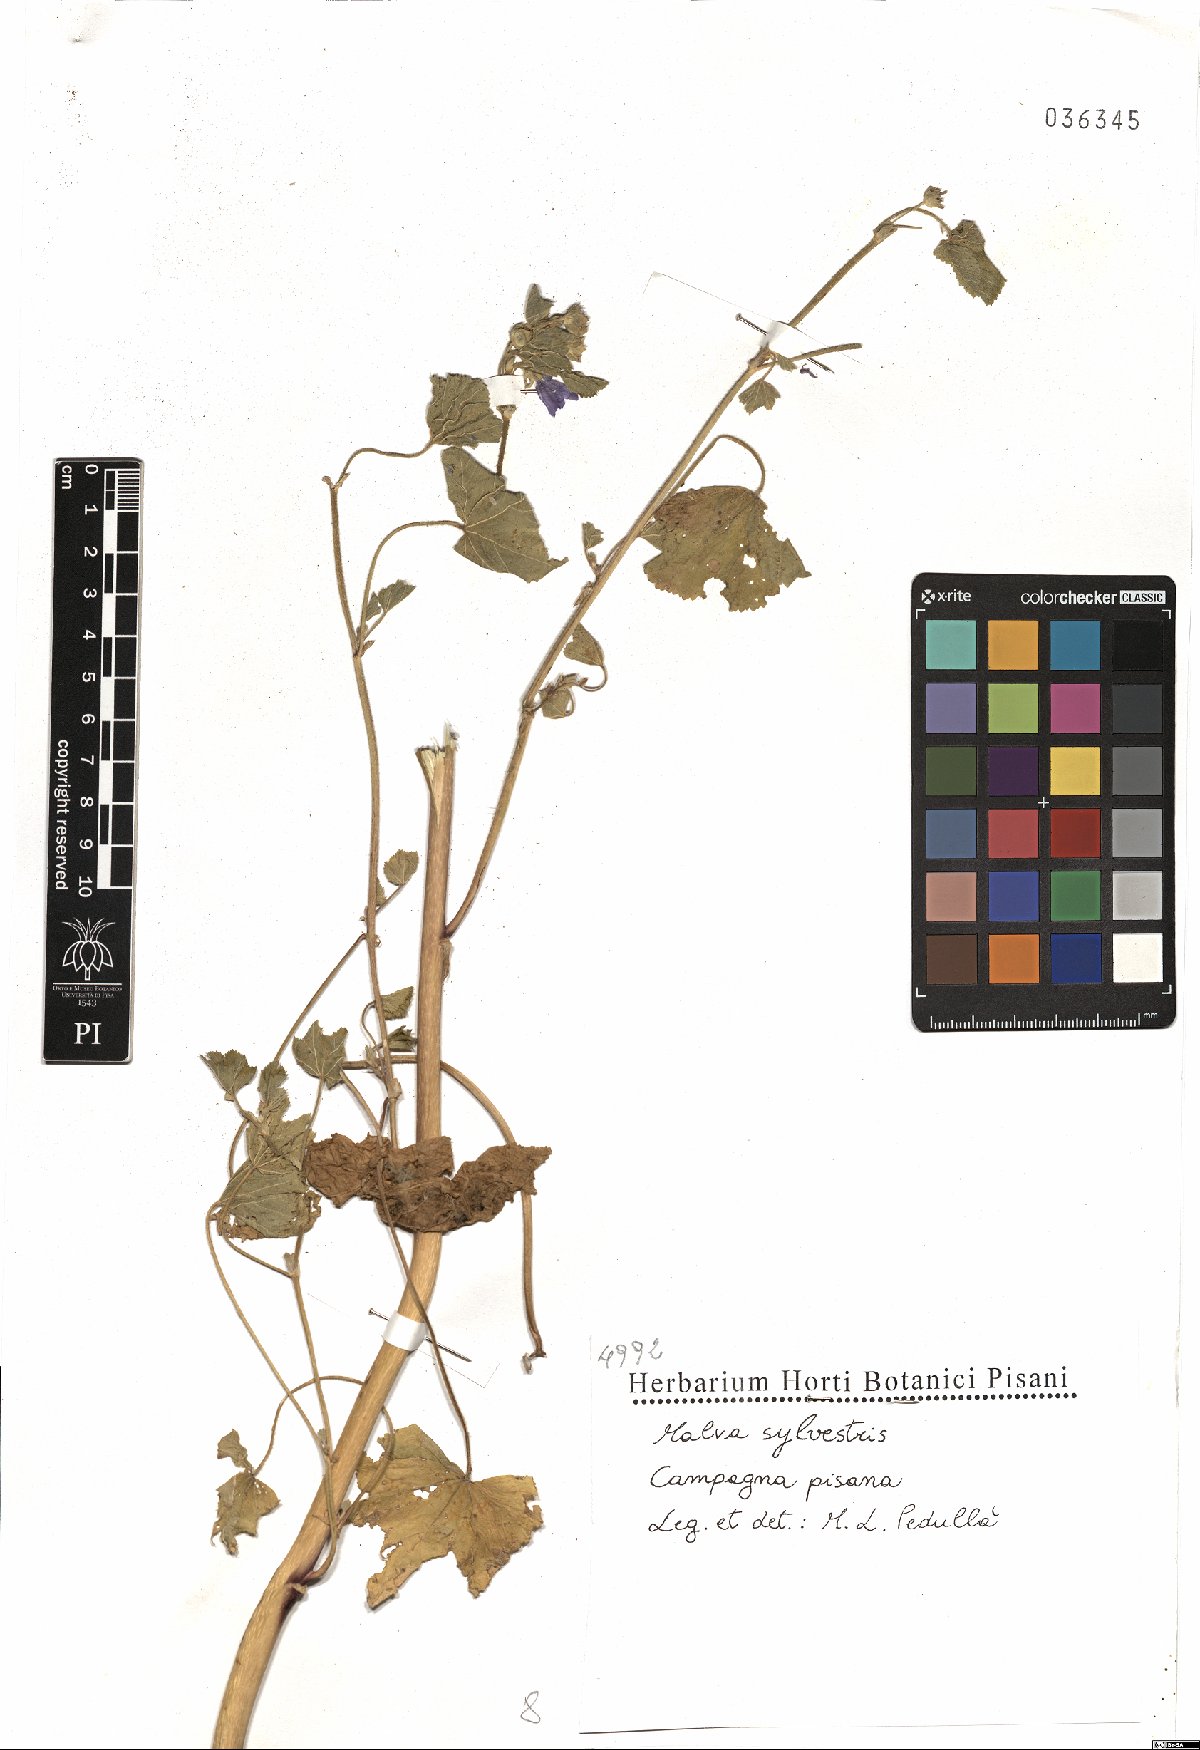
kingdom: Plantae
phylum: Tracheophyta
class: Magnoliopsida
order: Malvales
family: Malvaceae
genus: Malva
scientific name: Malva sylvestris
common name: Common mallow
